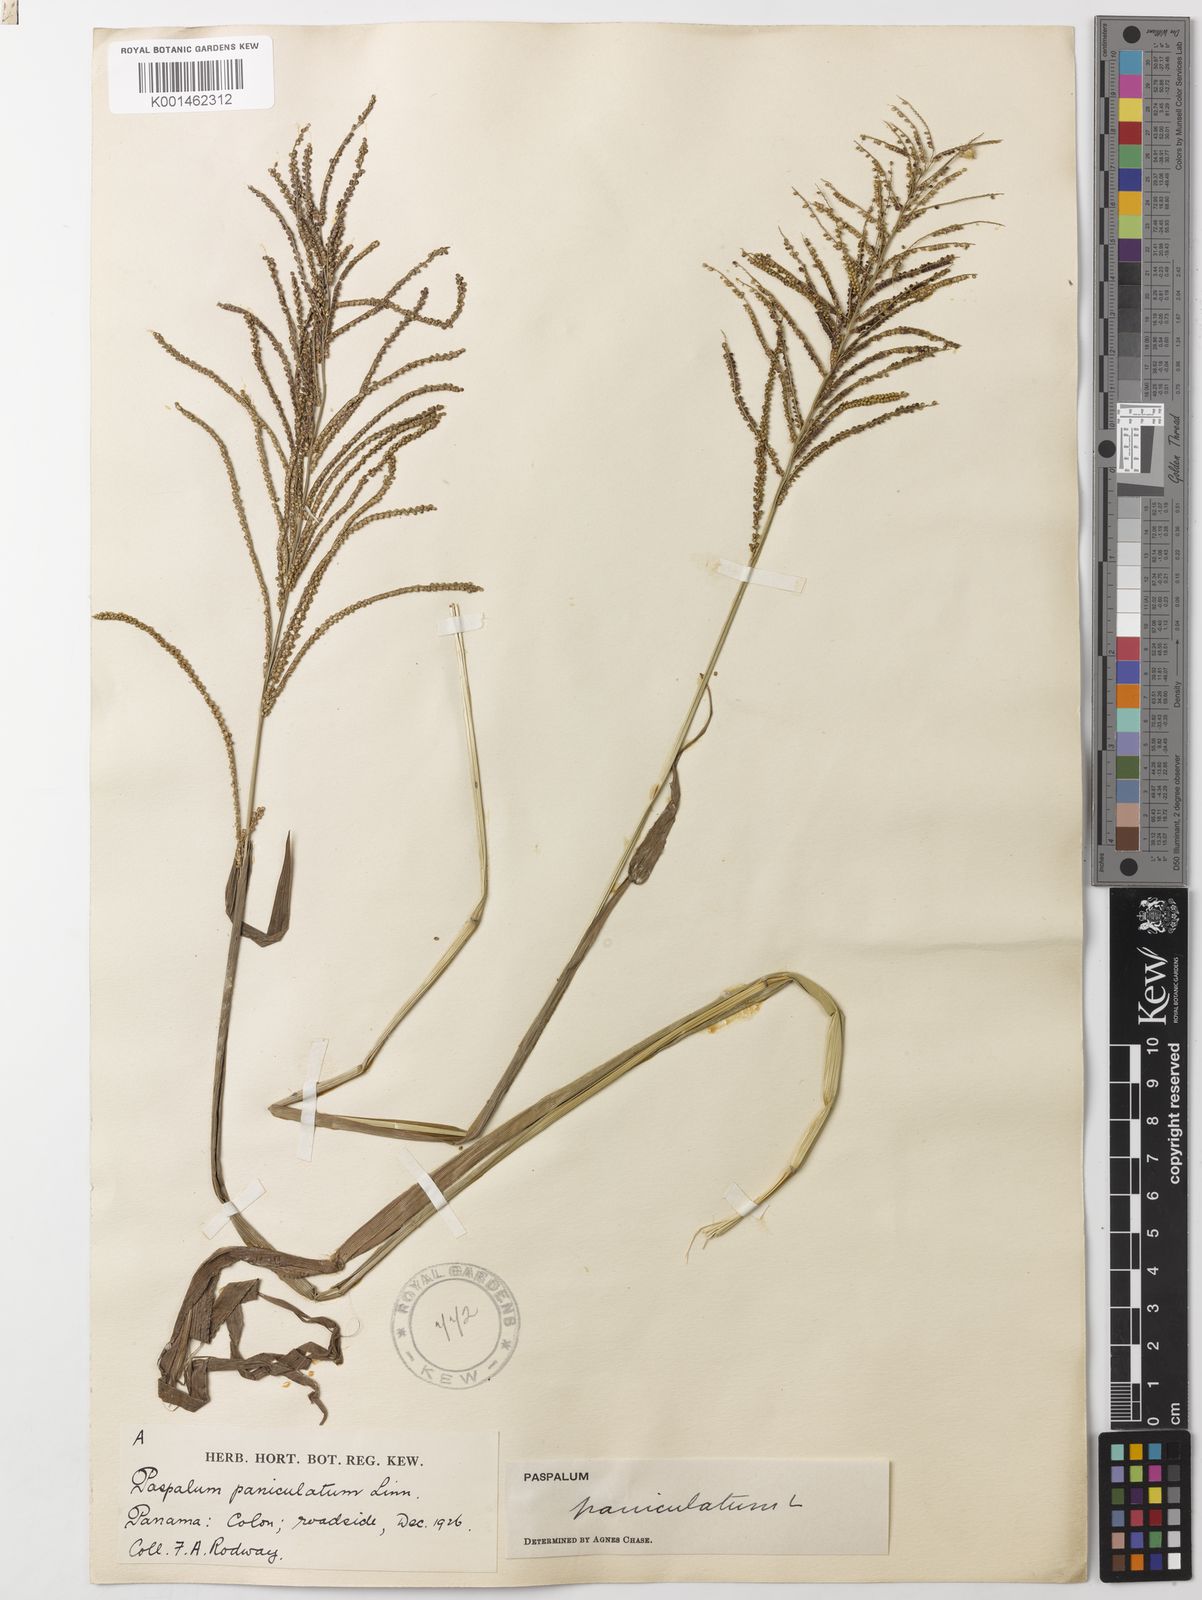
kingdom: Plantae
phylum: Tracheophyta
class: Liliopsida
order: Poales
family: Poaceae
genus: Paspalum
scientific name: Paspalum paniculatum
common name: Arrocillo
